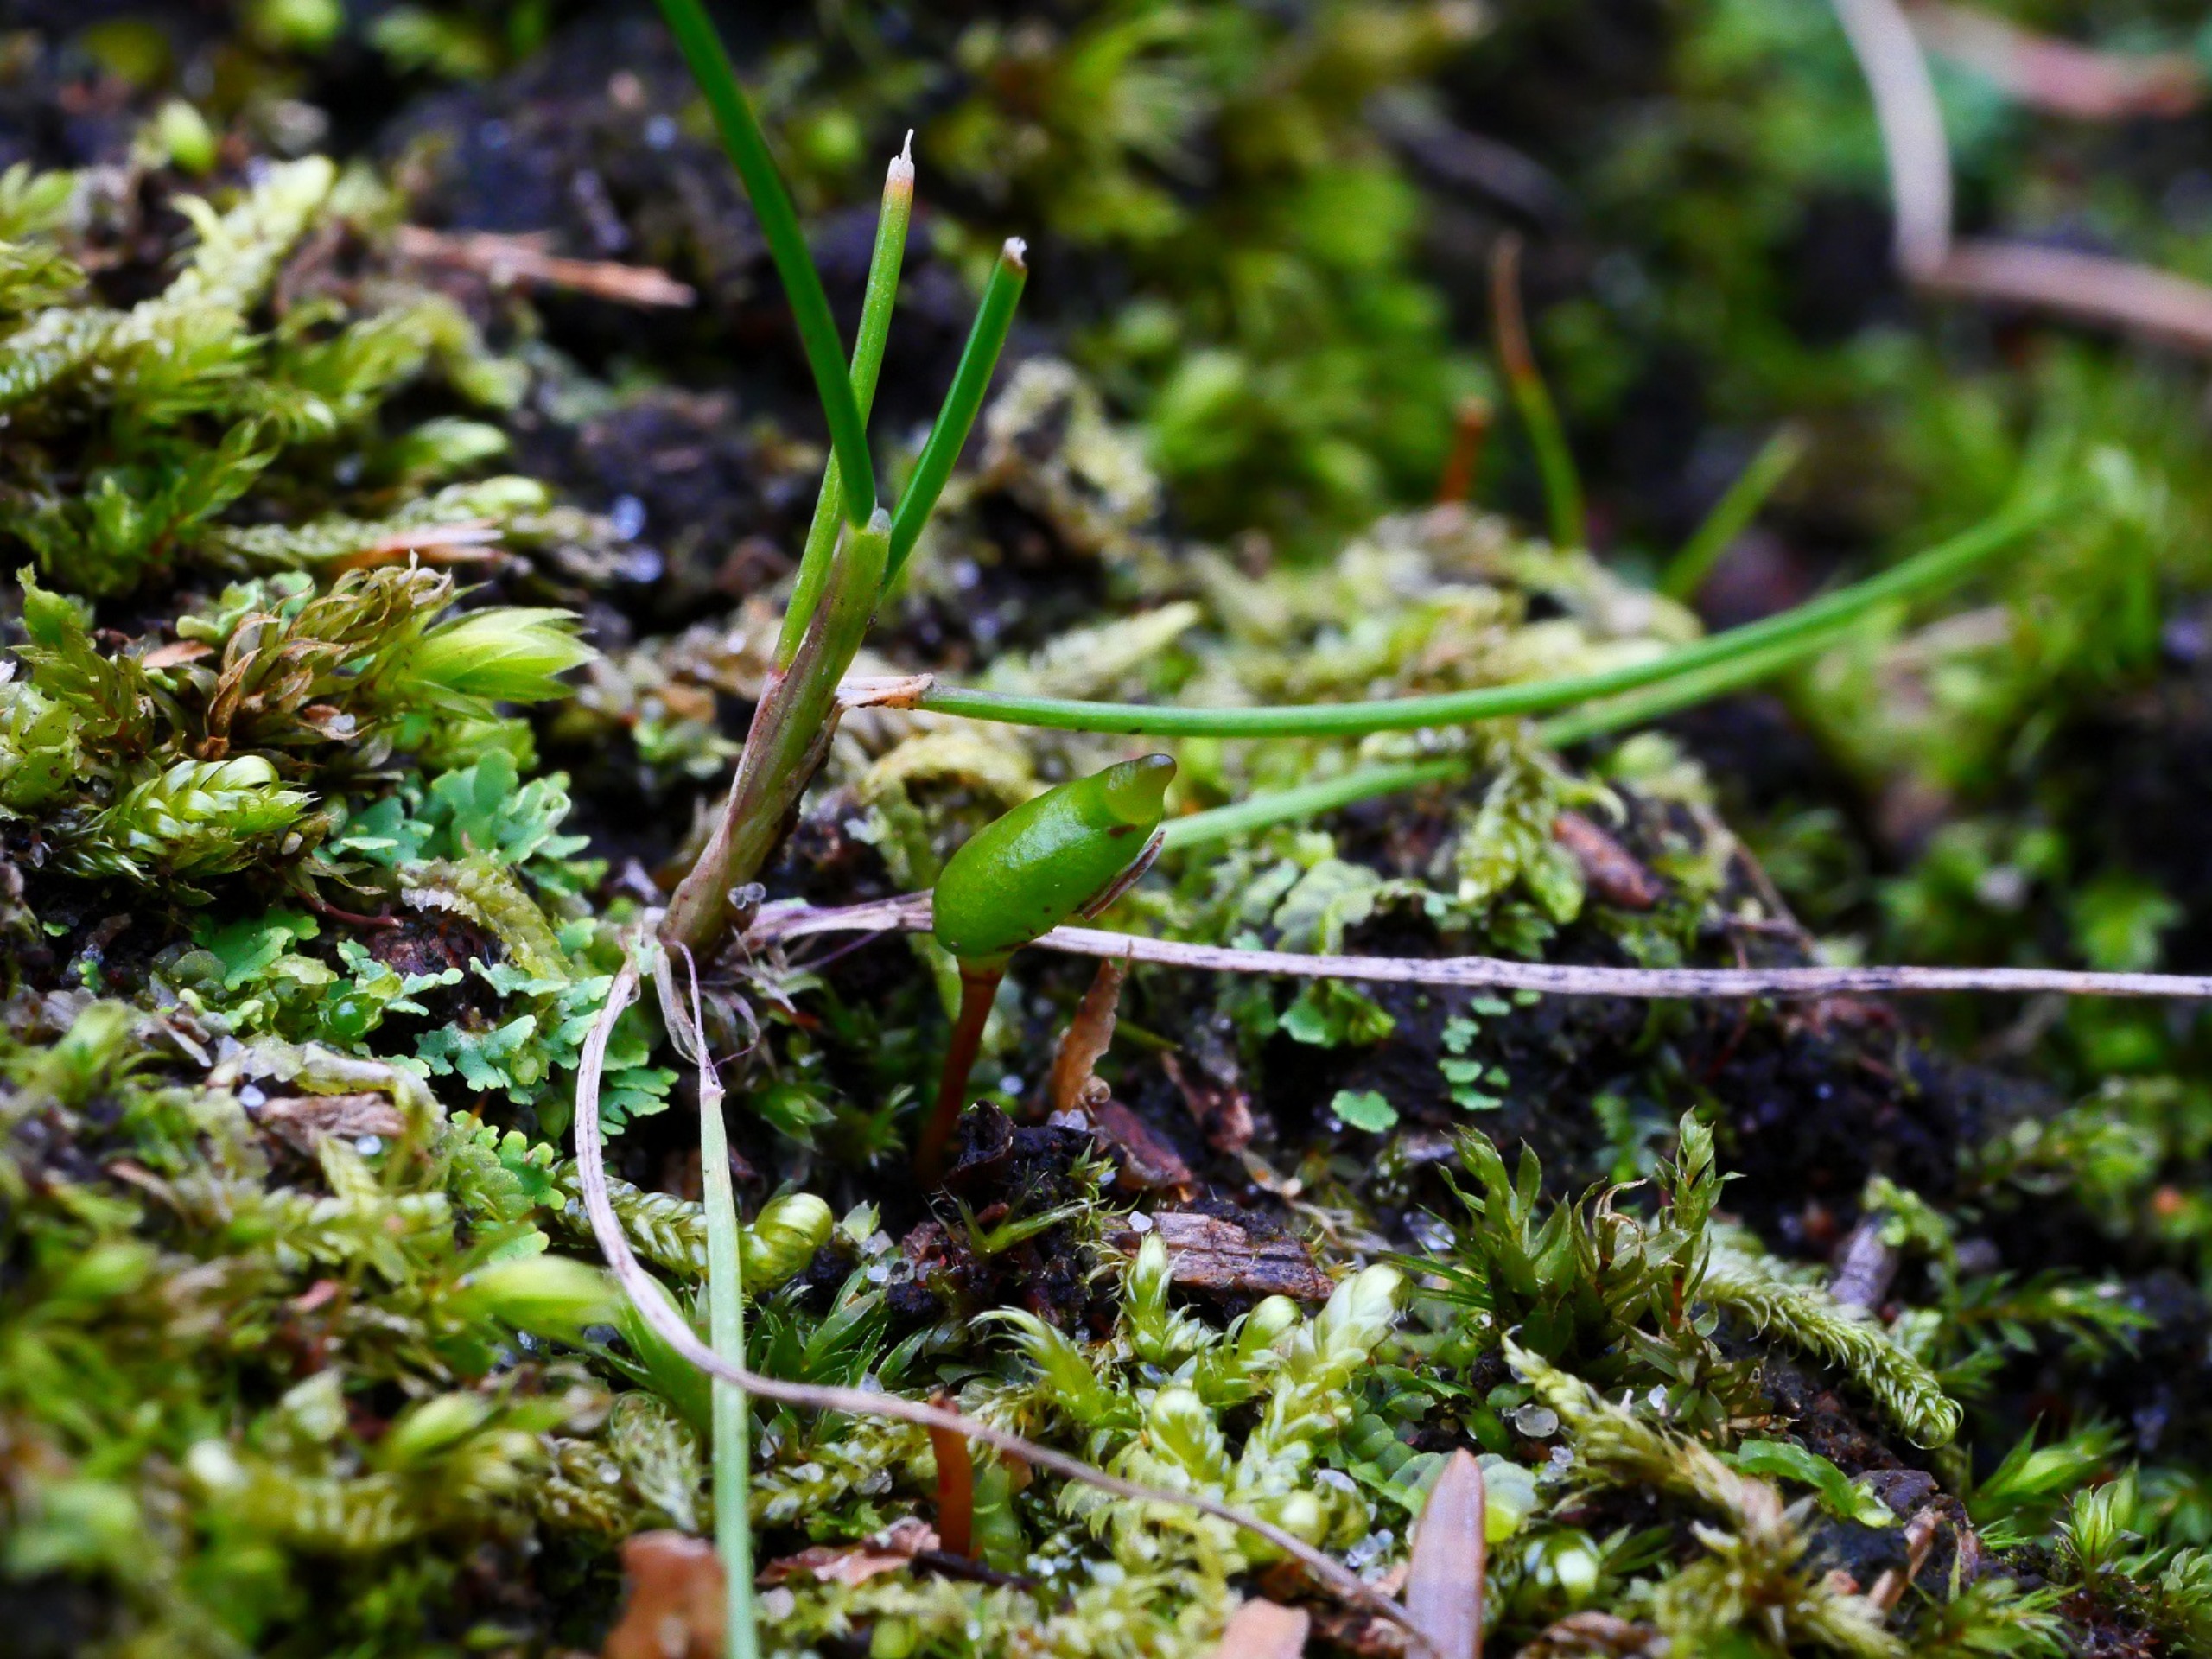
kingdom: Plantae
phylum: Bryophyta
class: Bryopsida
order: Buxbaumiales
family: Buxbaumiaceae
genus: Buxbaumia
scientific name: Buxbaumia viridis
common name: Grøn buxbaumia
